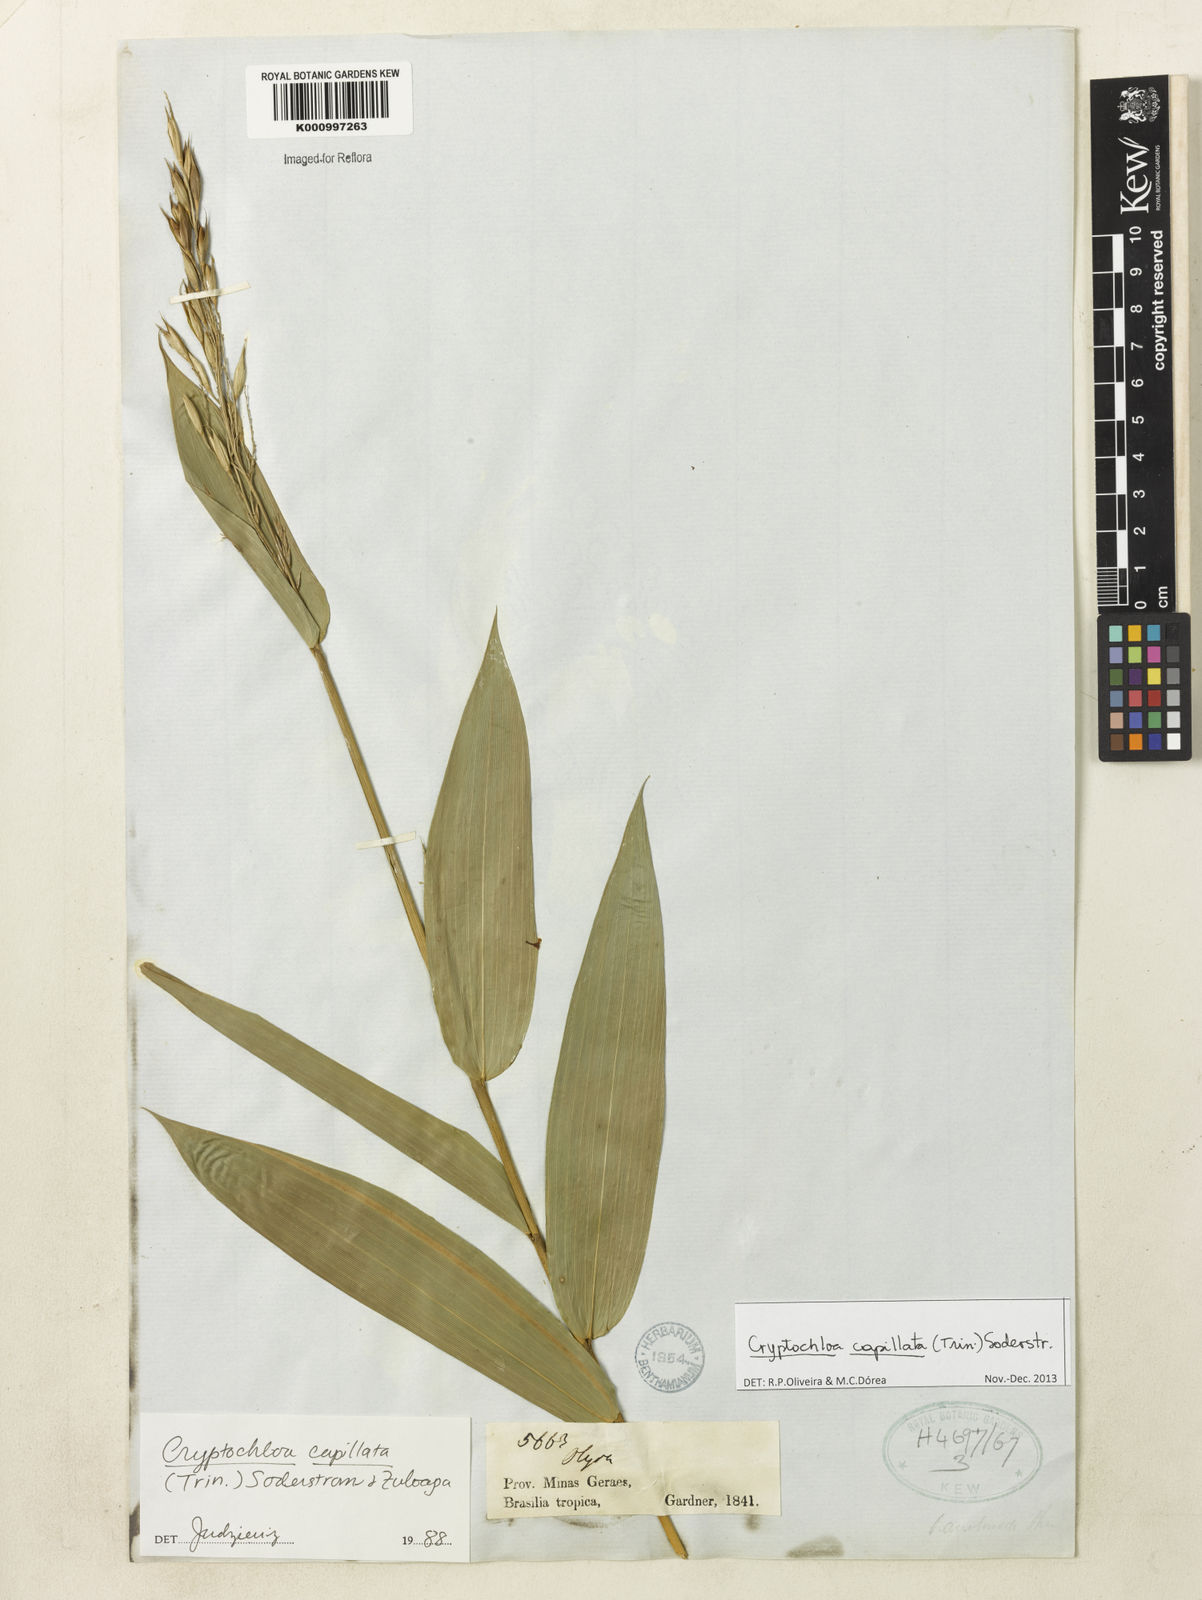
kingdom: Plantae
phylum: Tracheophyta
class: Liliopsida
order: Poales
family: Poaceae
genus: Cryptochloa
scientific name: Cryptochloa capillata
